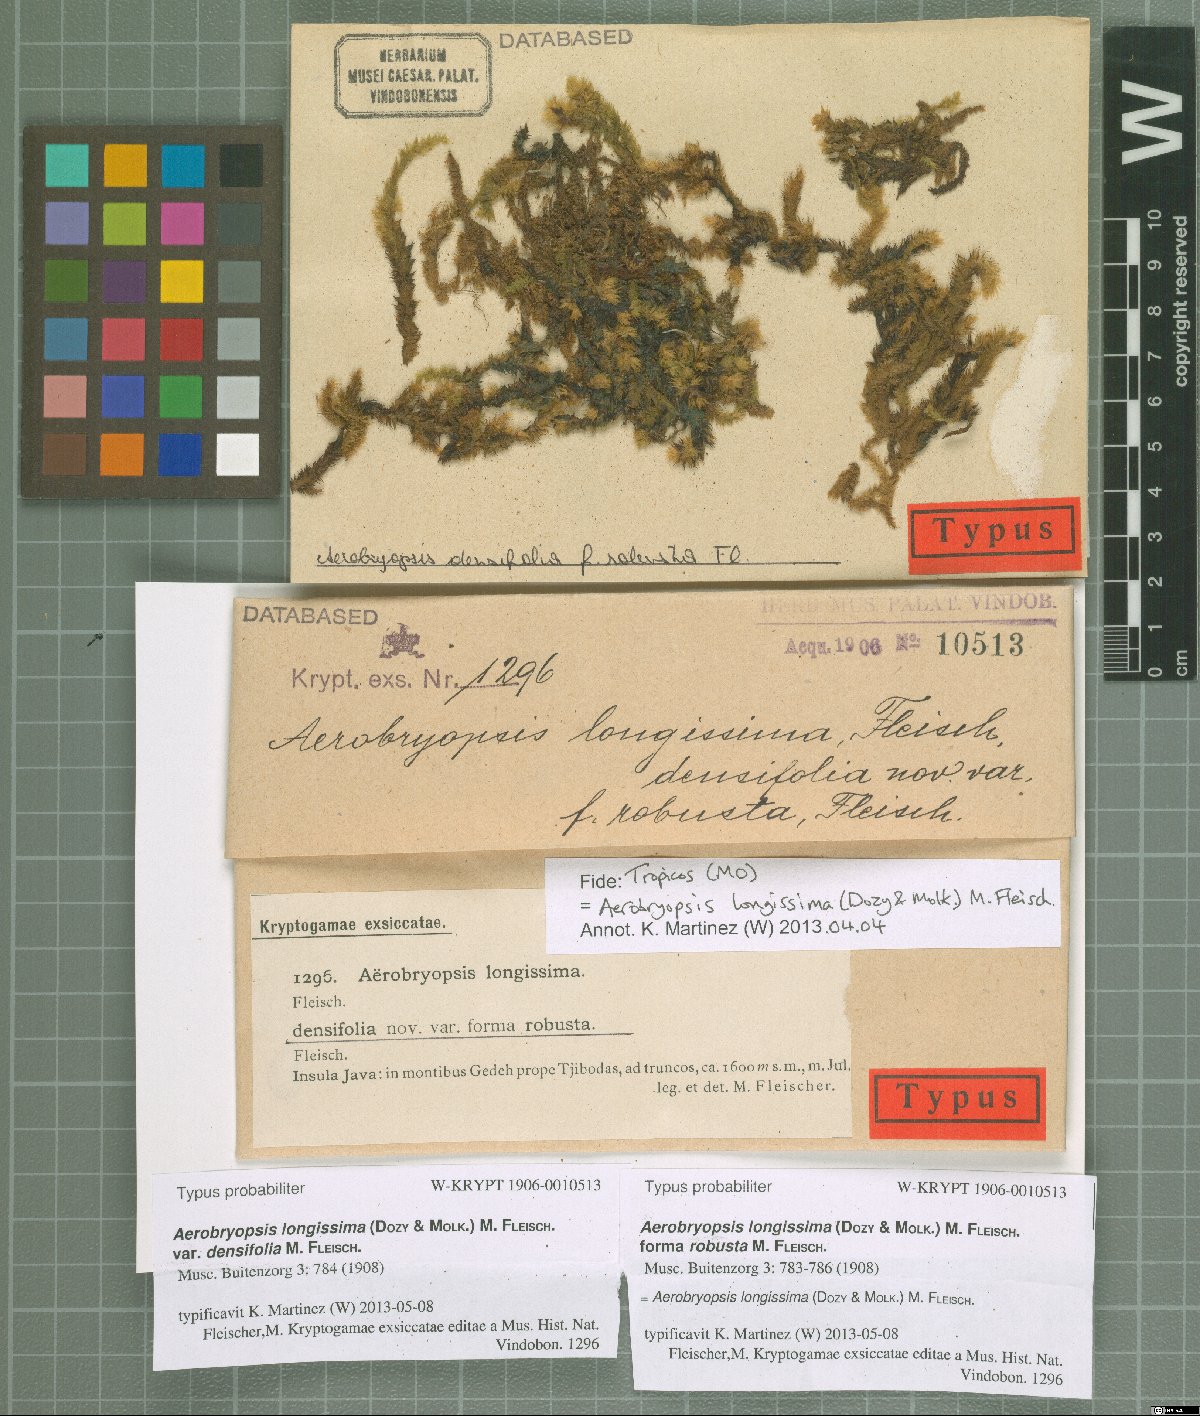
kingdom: Plantae
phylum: Bryophyta
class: Bryopsida
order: Hypnales
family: Meteoriaceae
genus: Aerobryopsis
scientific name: Aerobryopsis longissima
